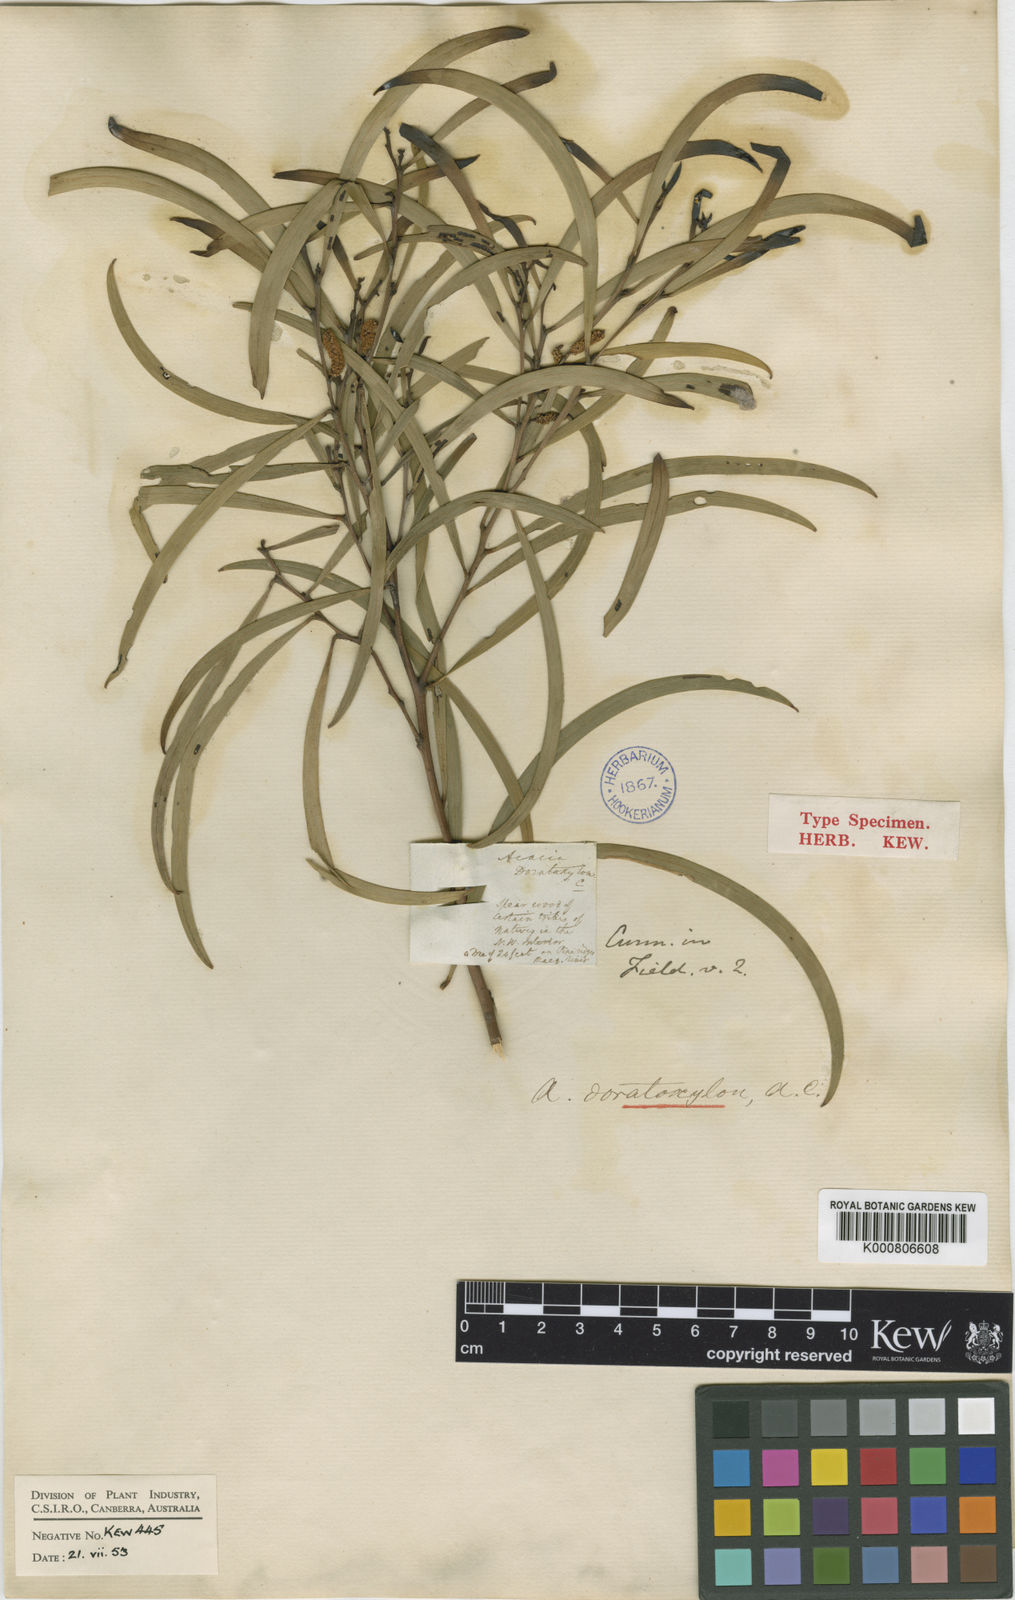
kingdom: Plantae
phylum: Tracheophyta
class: Magnoliopsida
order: Fabales
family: Fabaceae
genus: Acacia
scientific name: Acacia doratoxylon
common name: Lancewood
